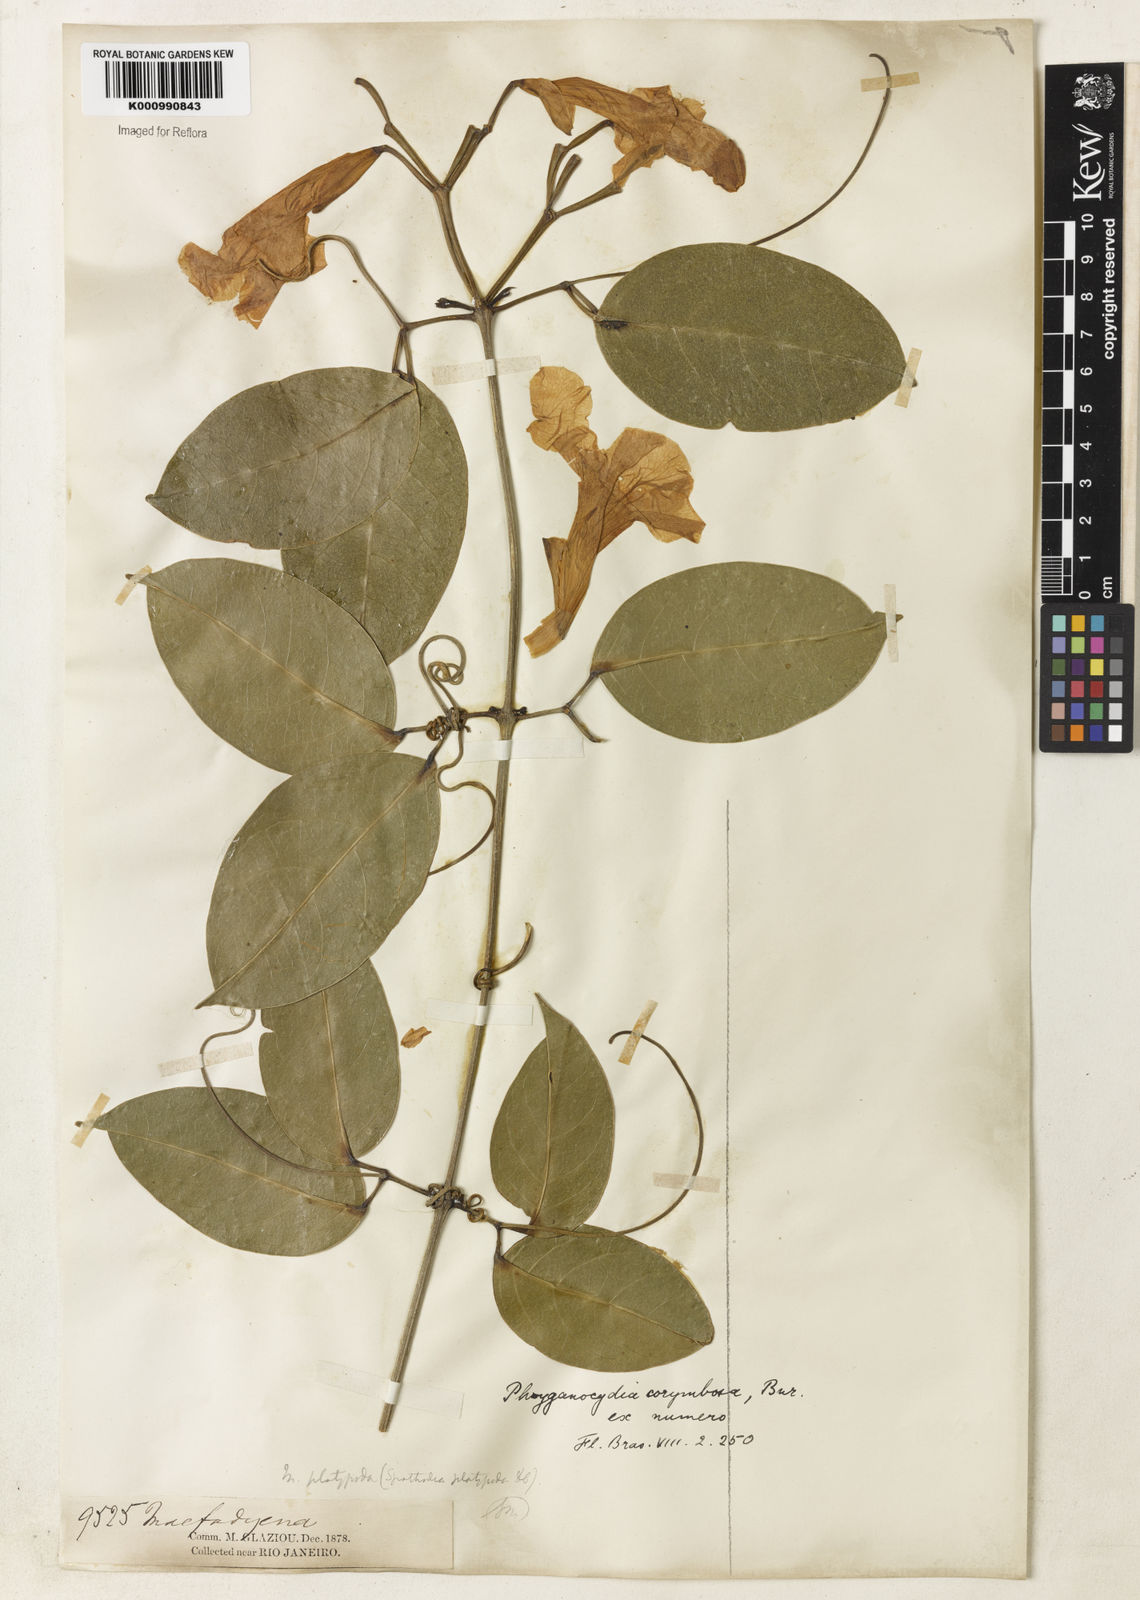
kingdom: Plantae
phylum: Tracheophyta
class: Magnoliopsida
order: Lamiales
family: Bignoniaceae
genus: Bignonia
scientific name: Bignonia corymbosa
